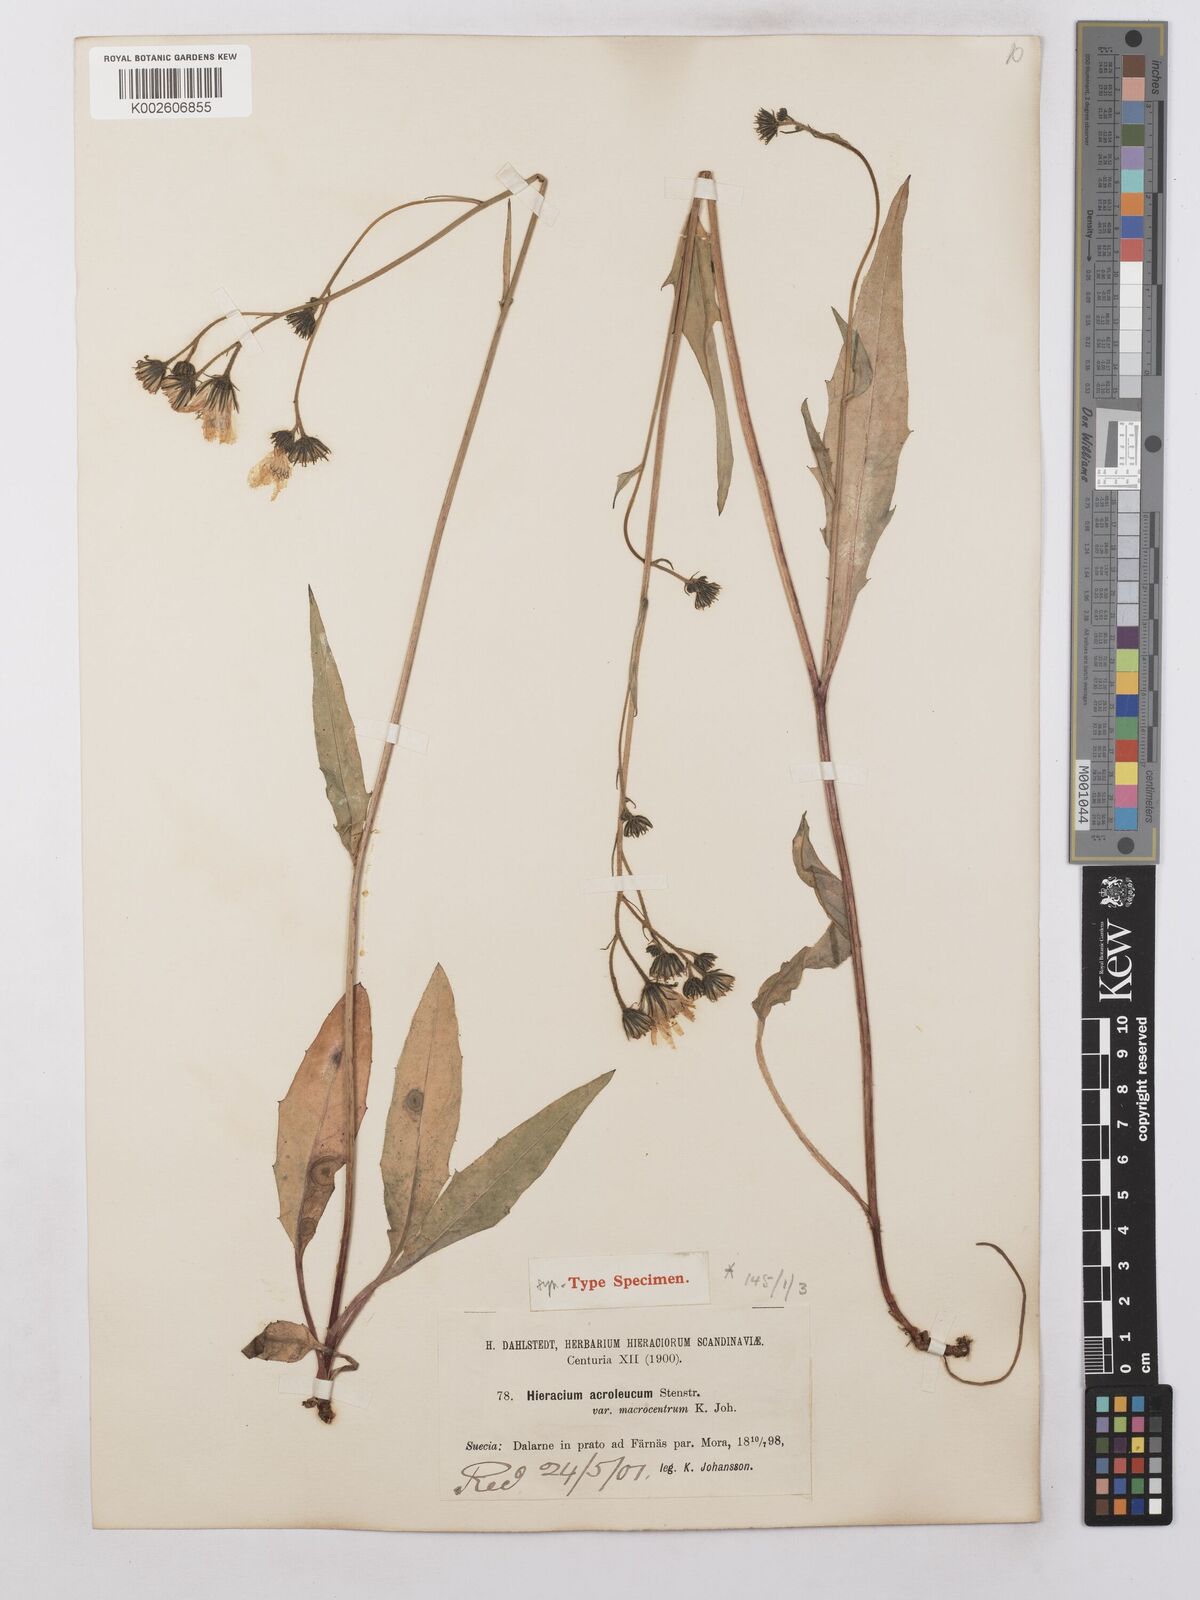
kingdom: Plantae
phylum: Tracheophyta
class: Magnoliopsida
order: Asterales
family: Asteraceae
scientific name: Asteraceae
